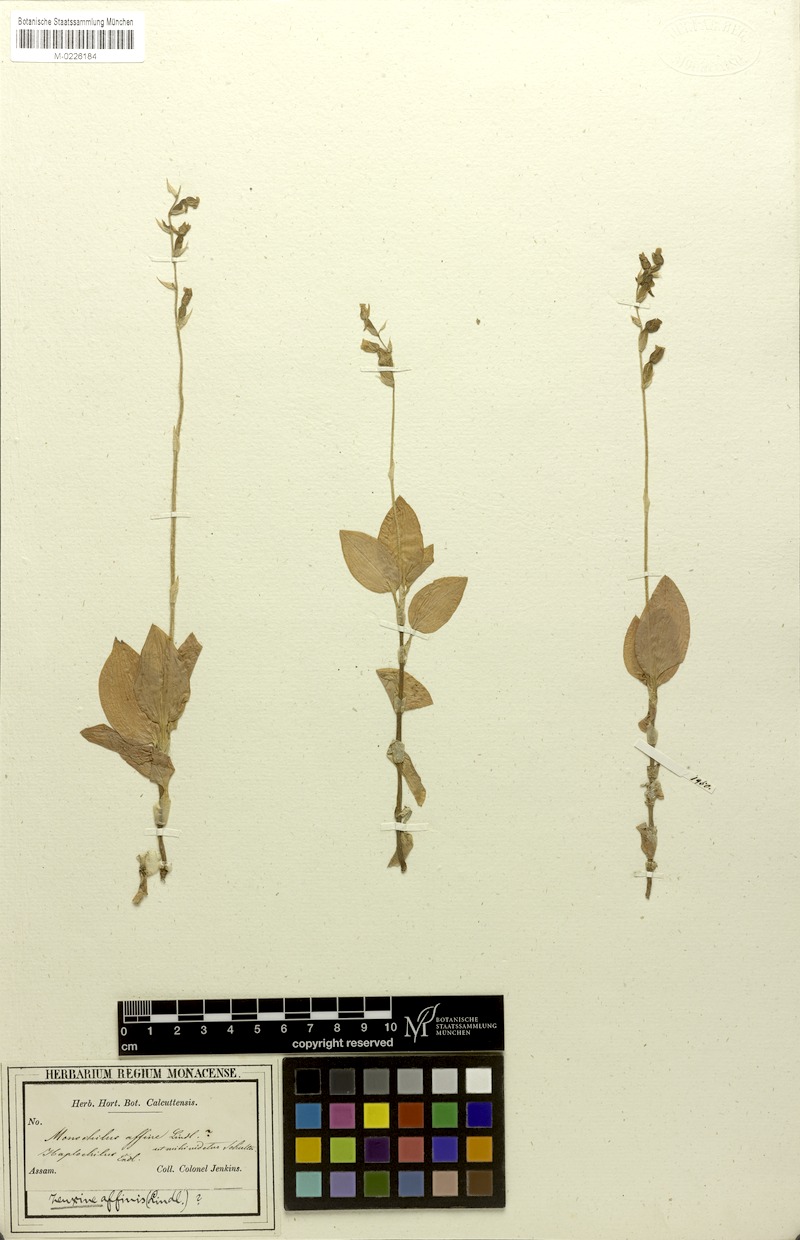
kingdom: Plantae
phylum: Tracheophyta
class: Liliopsida
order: Asparagales
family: Orchidaceae
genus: Zeuxine
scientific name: Zeuxine affinis
